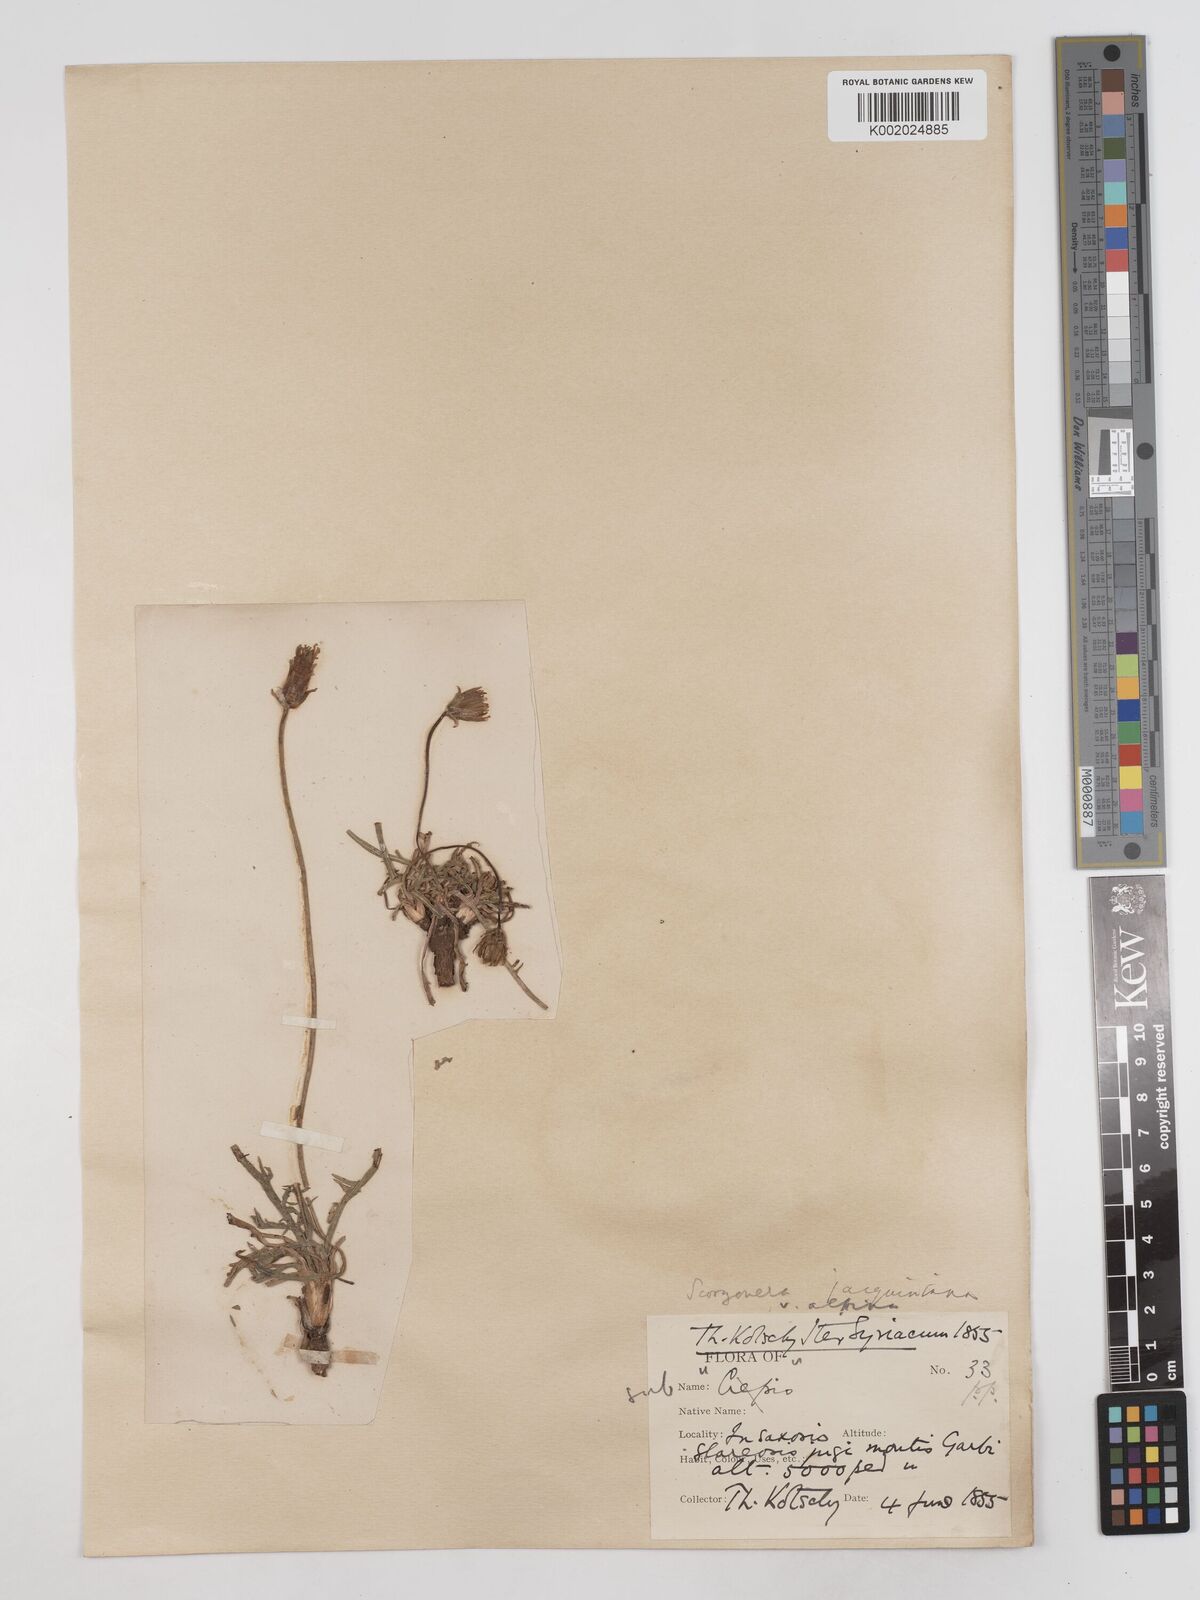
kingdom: Plantae
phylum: Tracheophyta
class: Magnoliopsida
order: Asterales
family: Asteraceae
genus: Scorzonera
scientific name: Scorzonera cana
